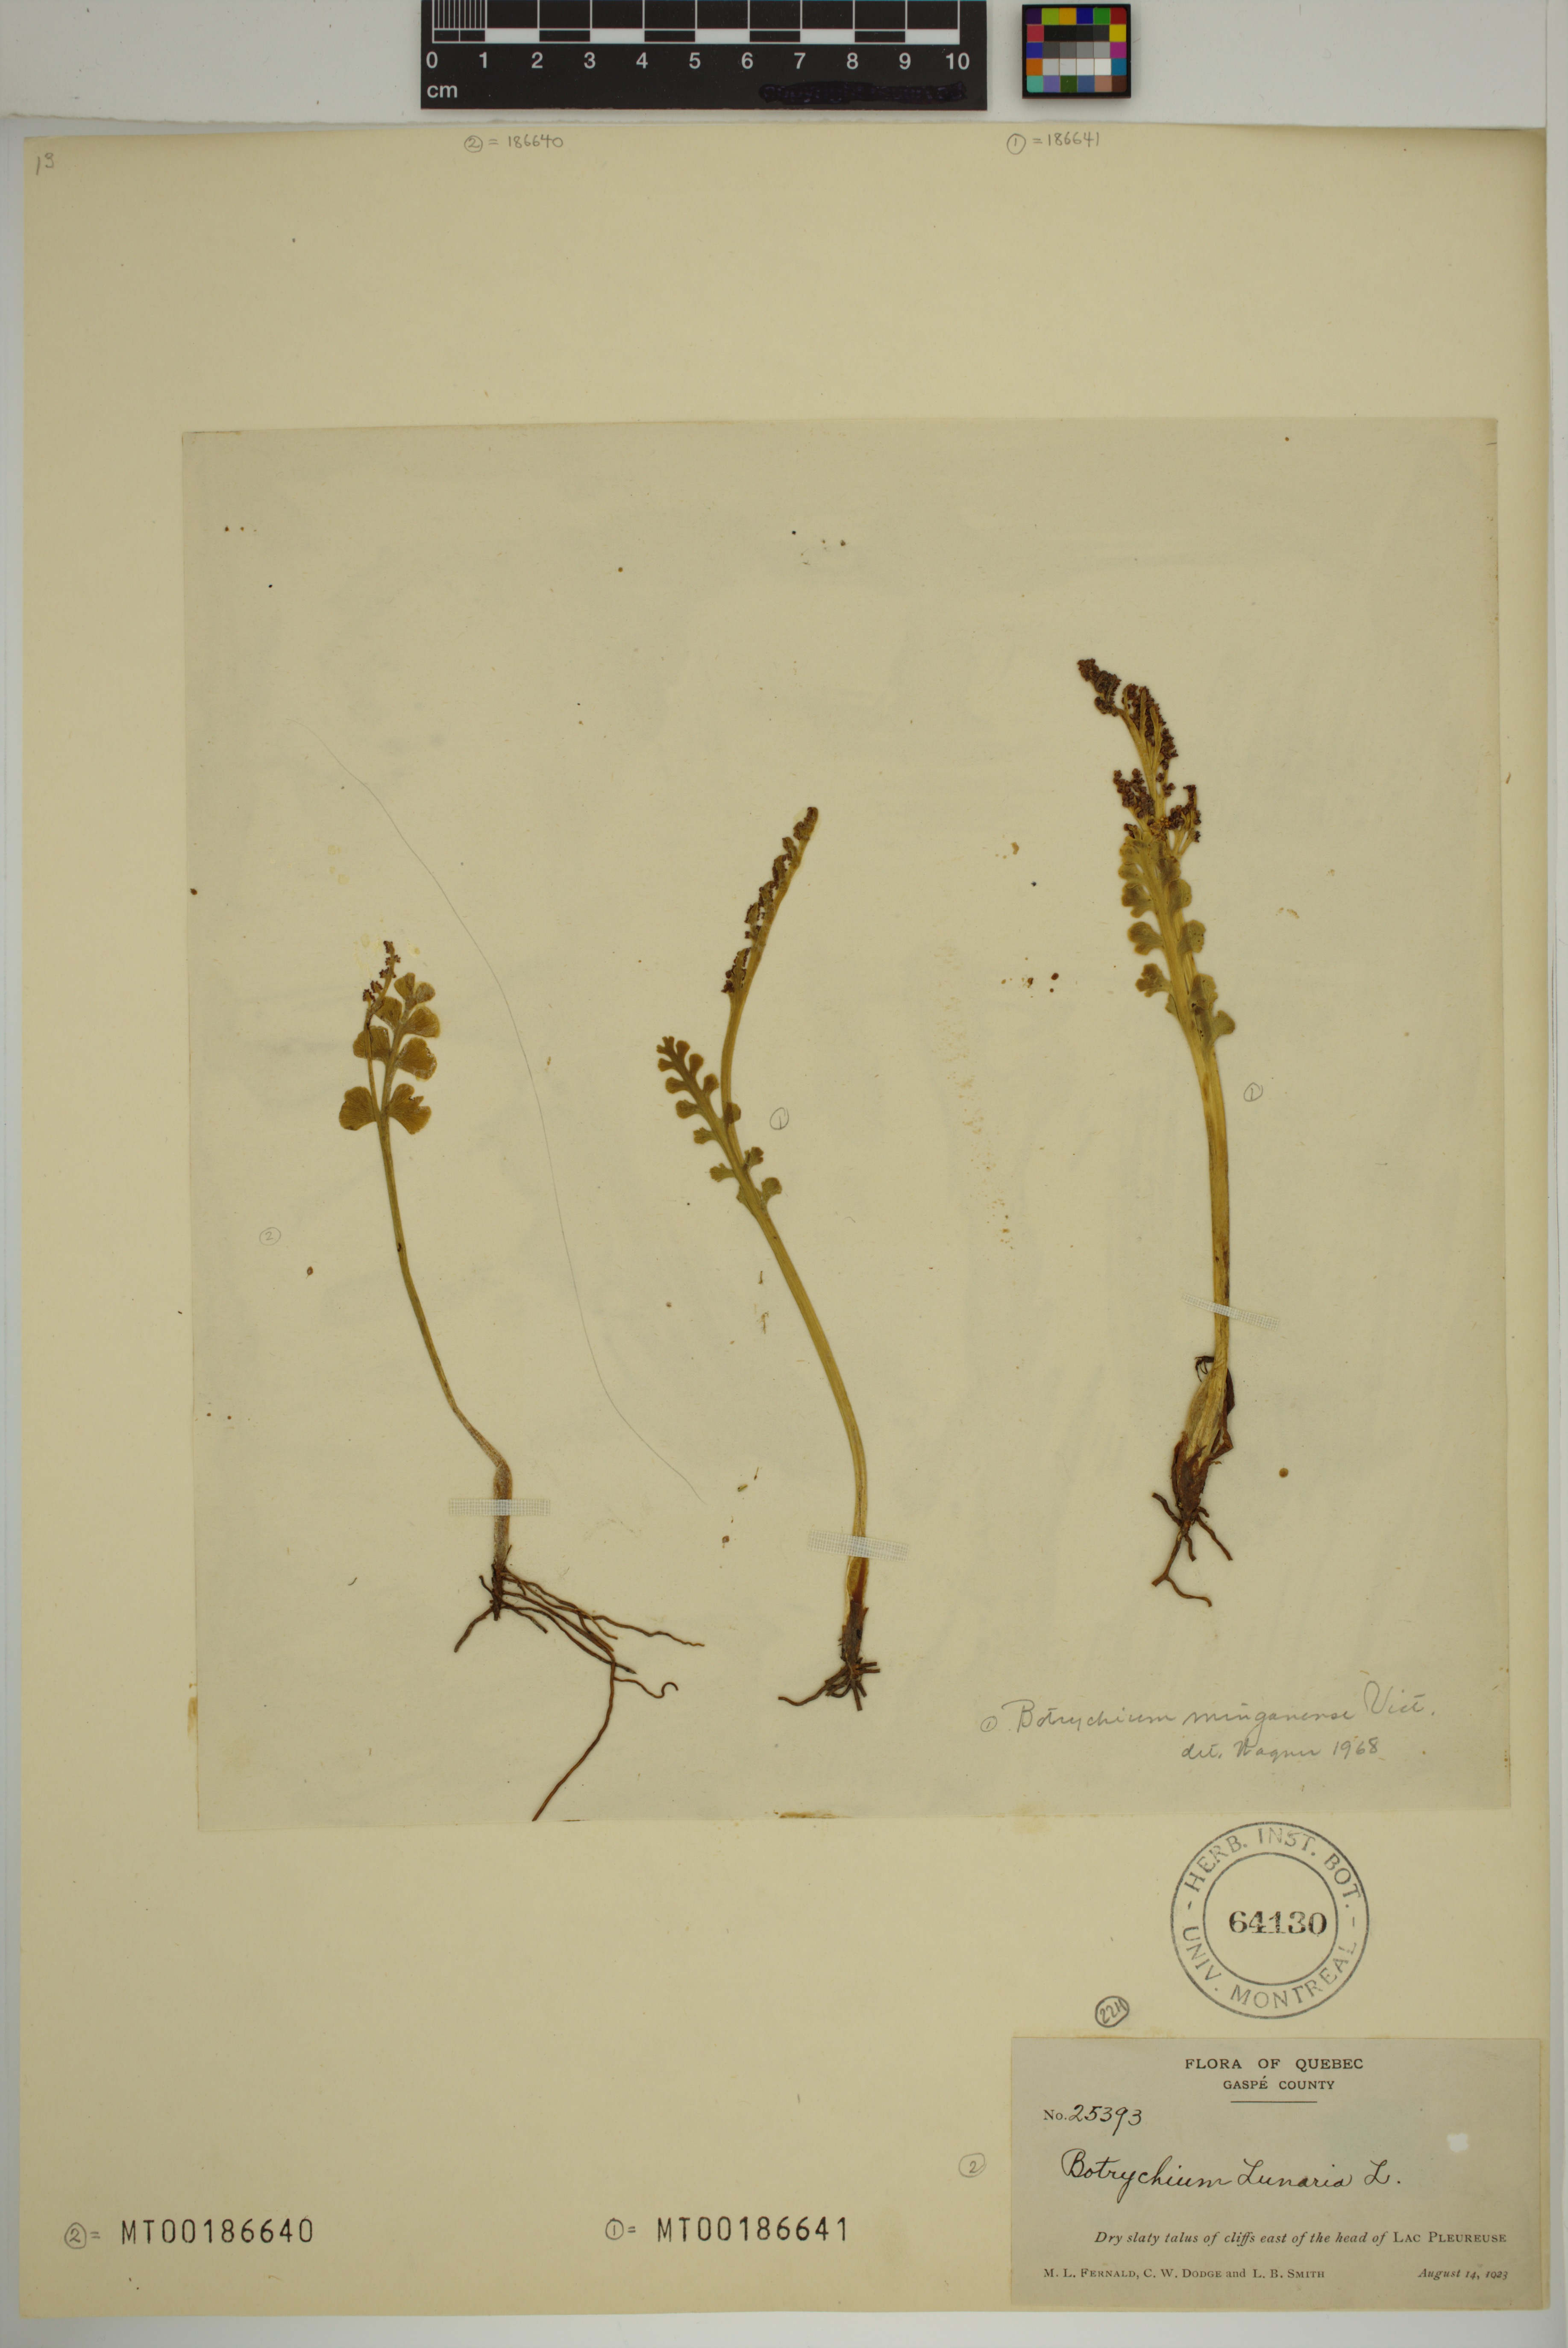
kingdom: Plantae
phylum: Tracheophyta
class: Polypodiopsida
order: Ophioglossales
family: Ophioglossaceae
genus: Botrychium
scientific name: Botrychium lunaria
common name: Moonwort
